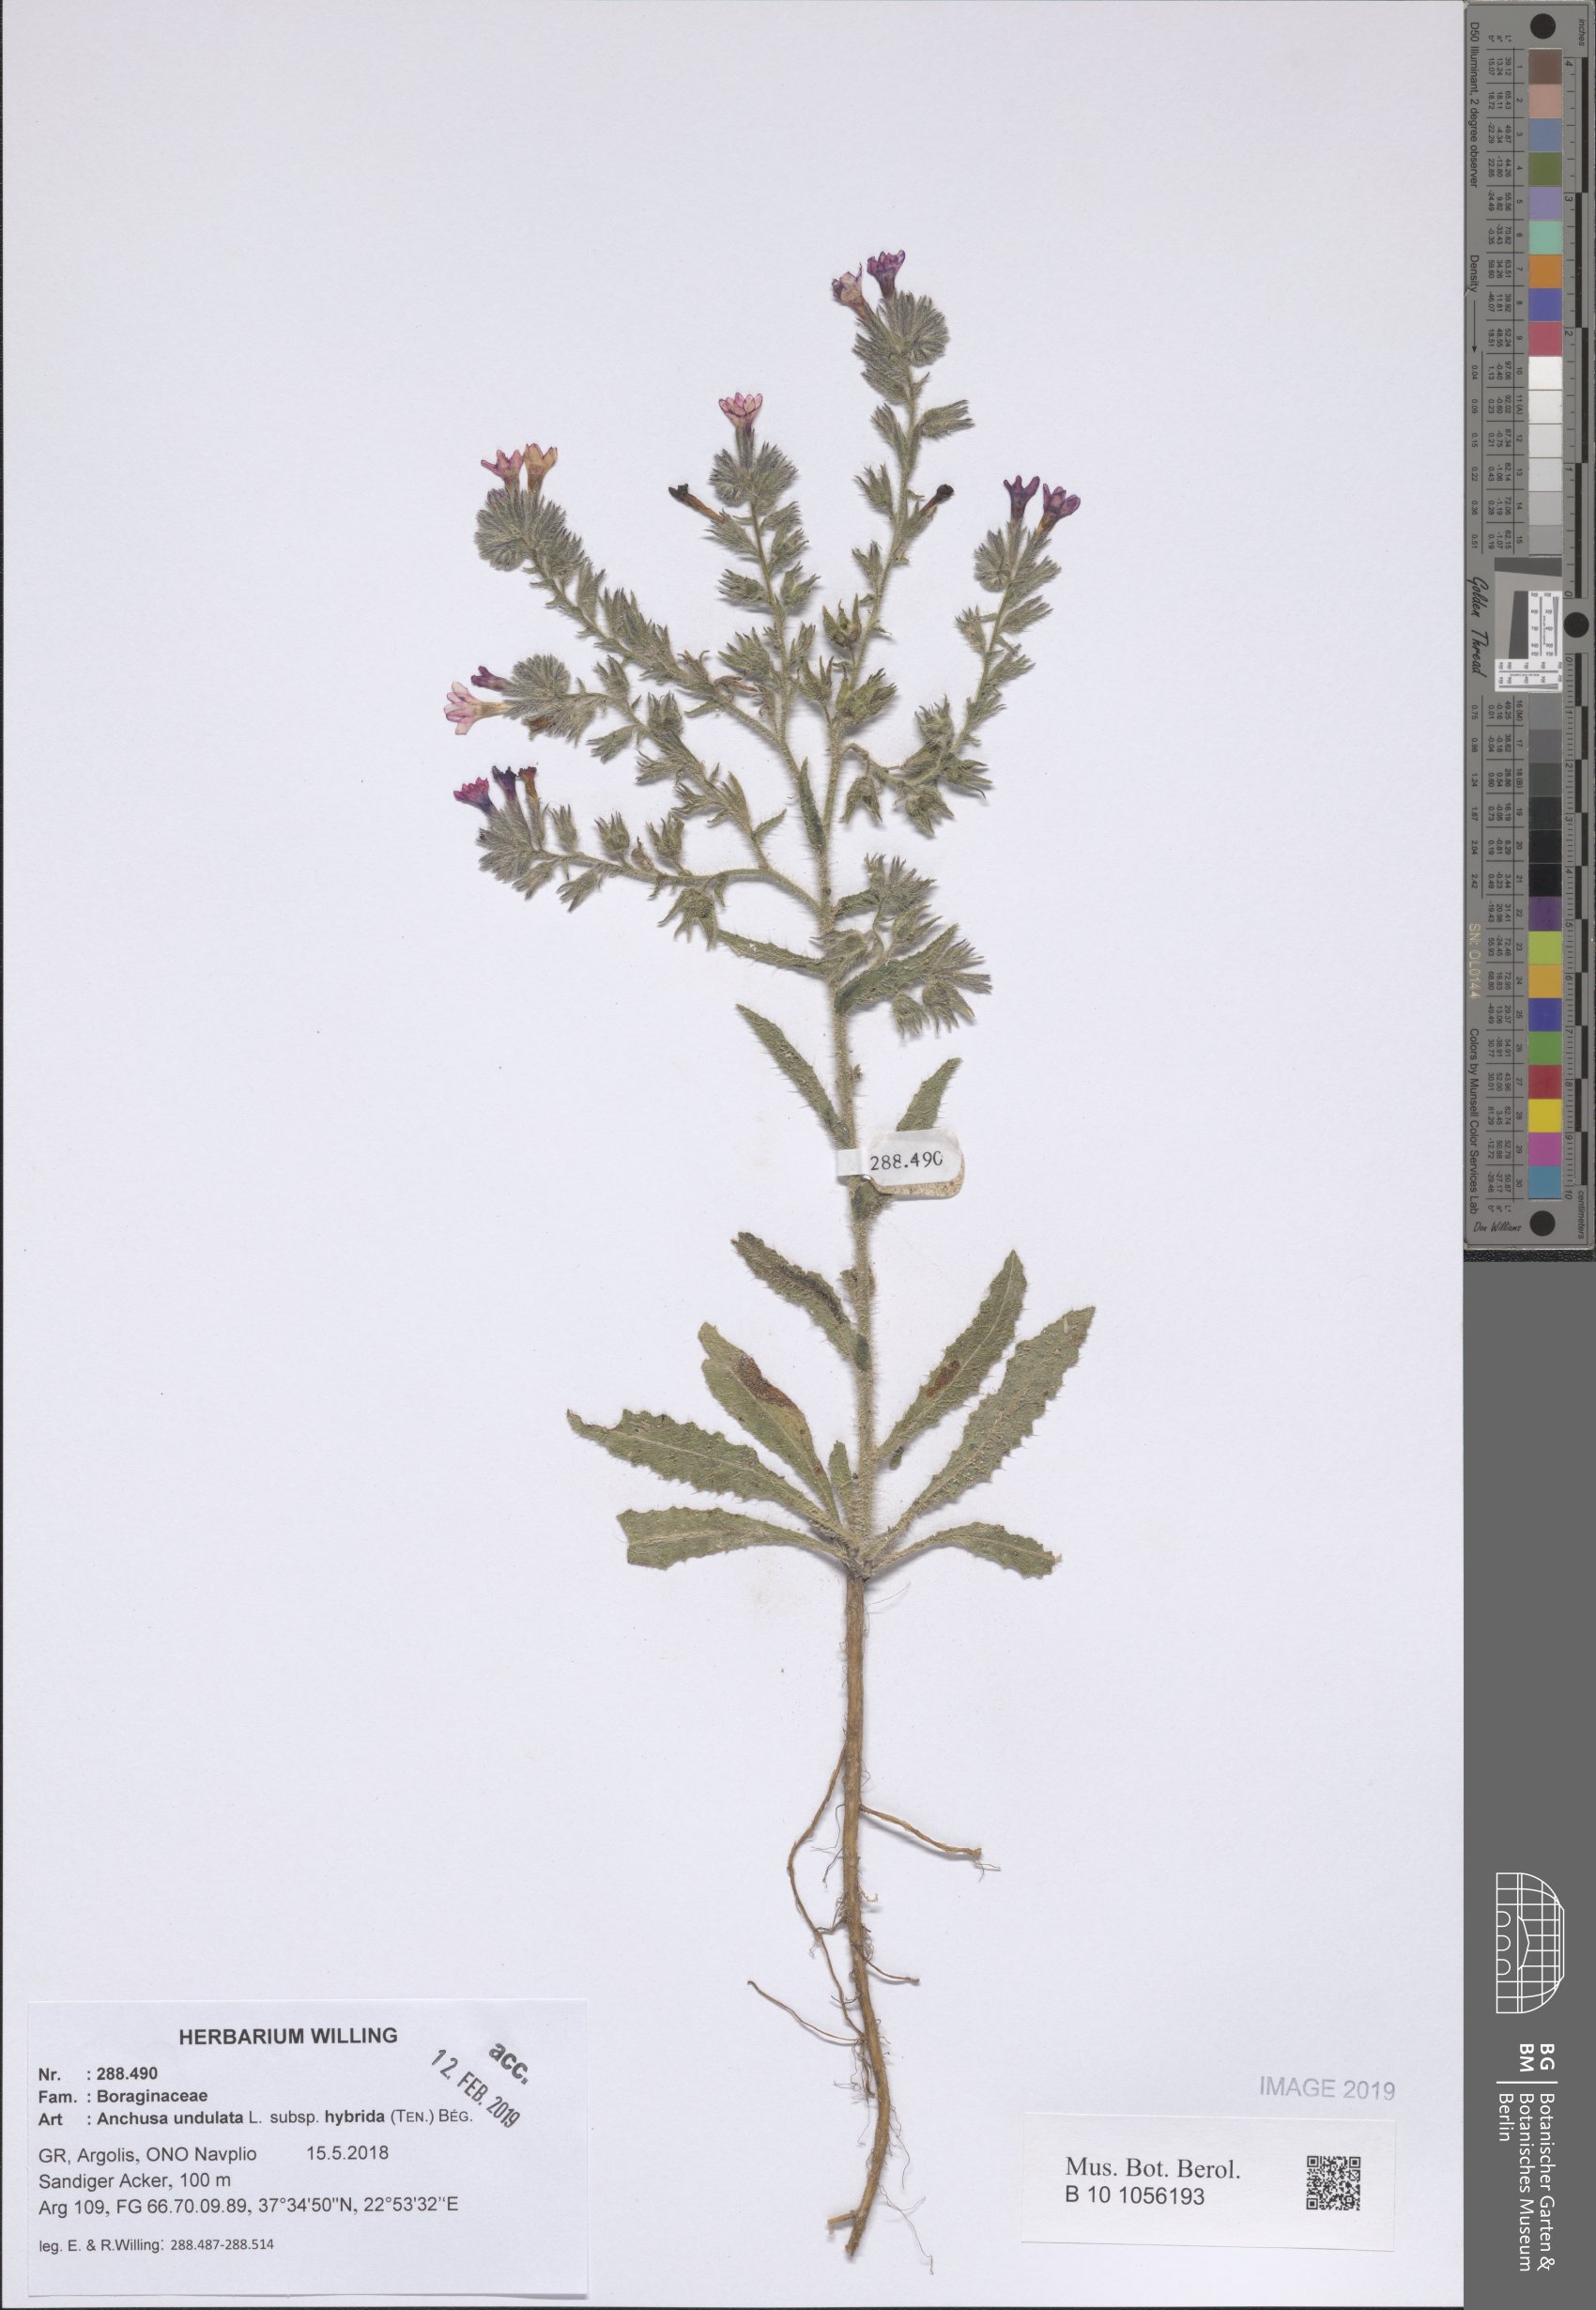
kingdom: Plantae
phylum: Tracheophyta
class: Magnoliopsida
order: Boraginales
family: Boraginaceae
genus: Anchusa
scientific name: Anchusa undulata
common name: Undulate alkanet
